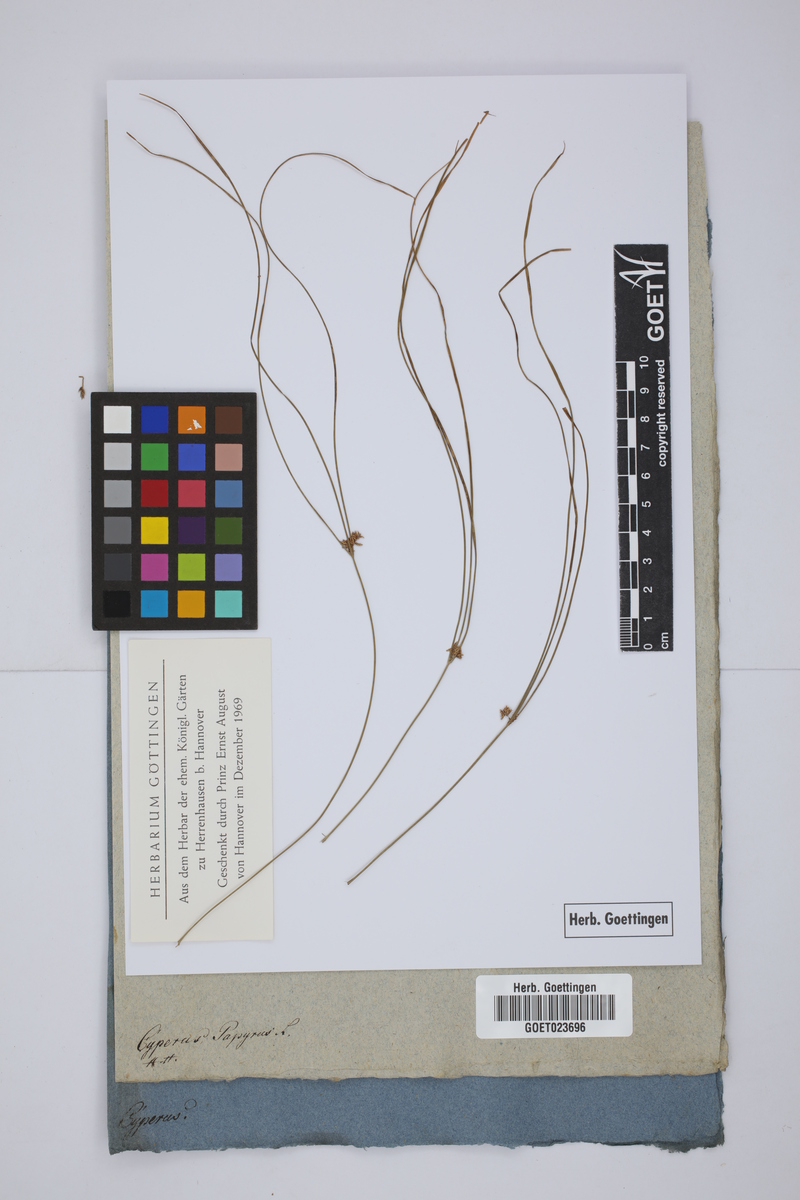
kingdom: Plantae
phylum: Tracheophyta
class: Liliopsida
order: Poales
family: Cyperaceae
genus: Cyperus
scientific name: Cyperus papyrus
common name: Papyrus
